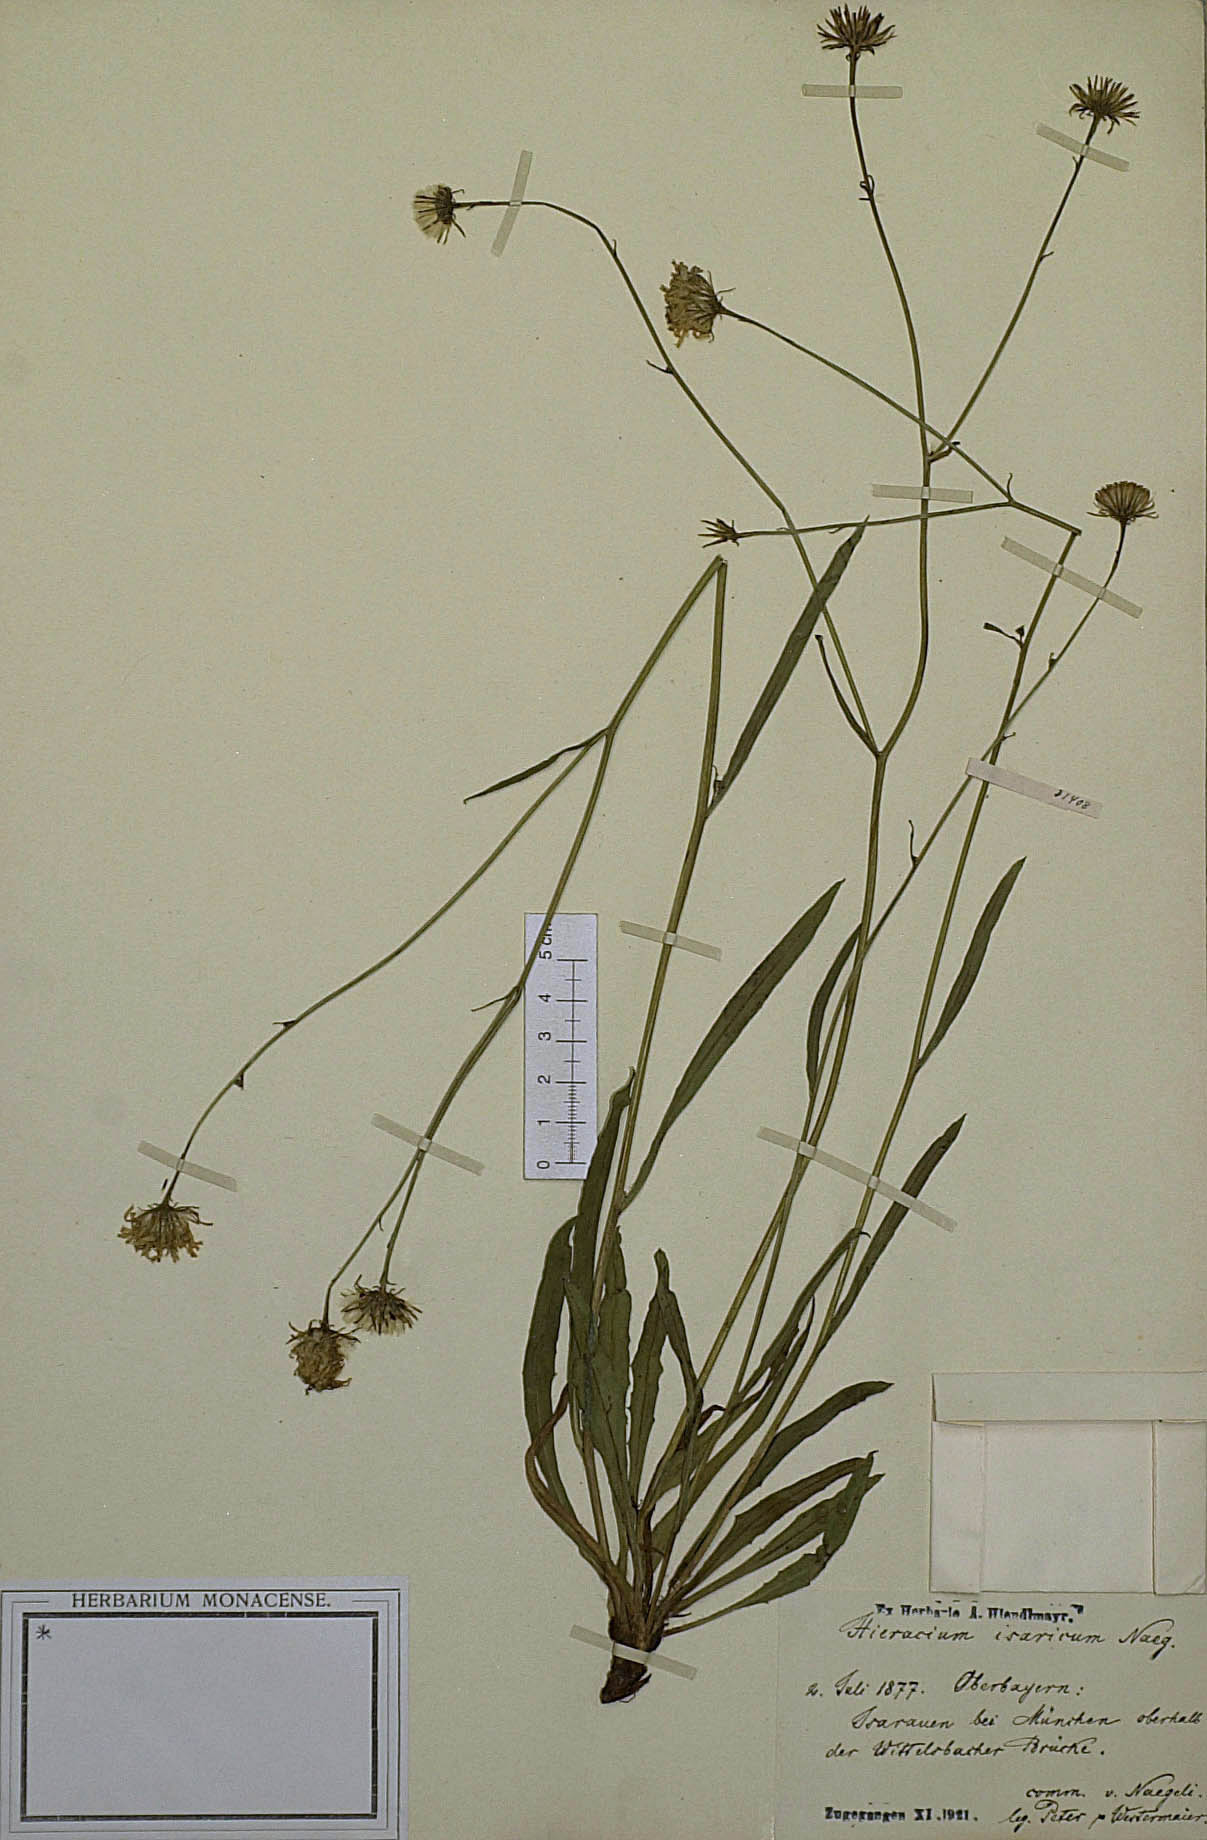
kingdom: Plantae
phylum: Tracheophyta
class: Magnoliopsida
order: Asterales
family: Asteraceae
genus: Hieracium
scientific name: Hieracium glaucum
